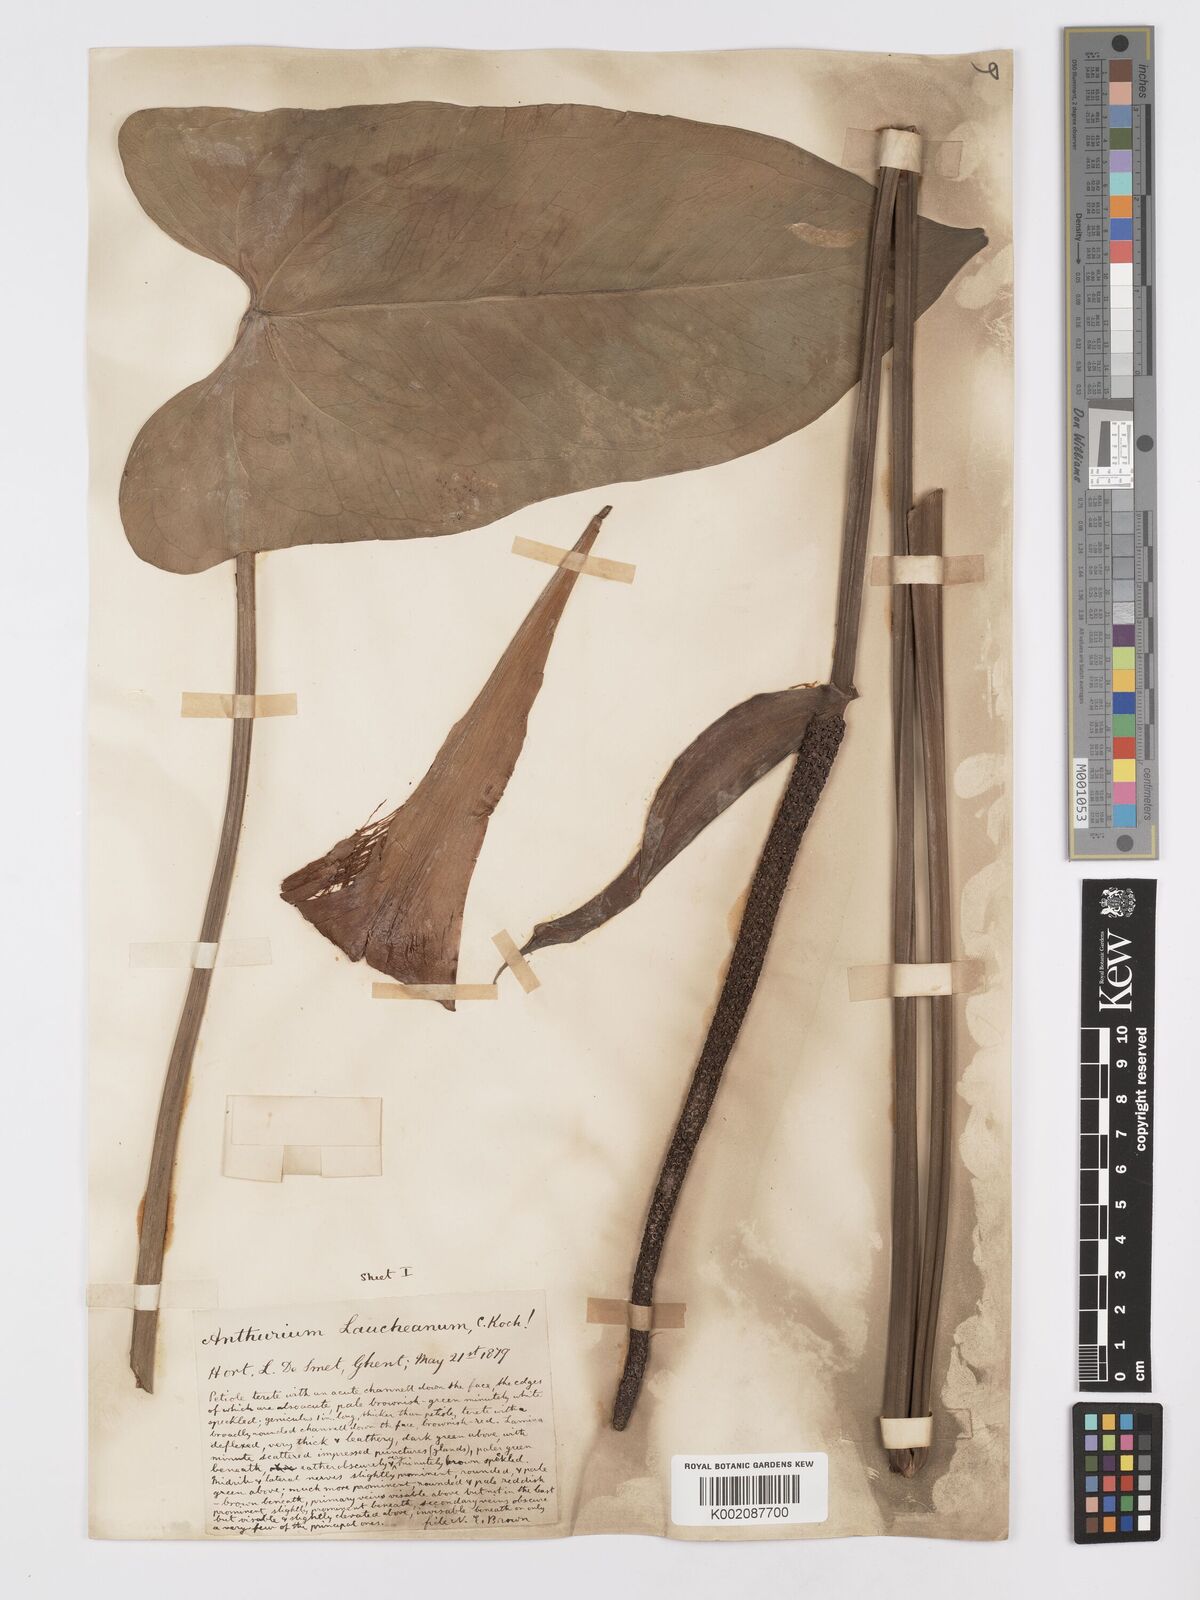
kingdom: Plantae
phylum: Tracheophyta
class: Liliopsida
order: Alismatales
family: Araceae
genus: Anthurium
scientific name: Anthurium augustinum
